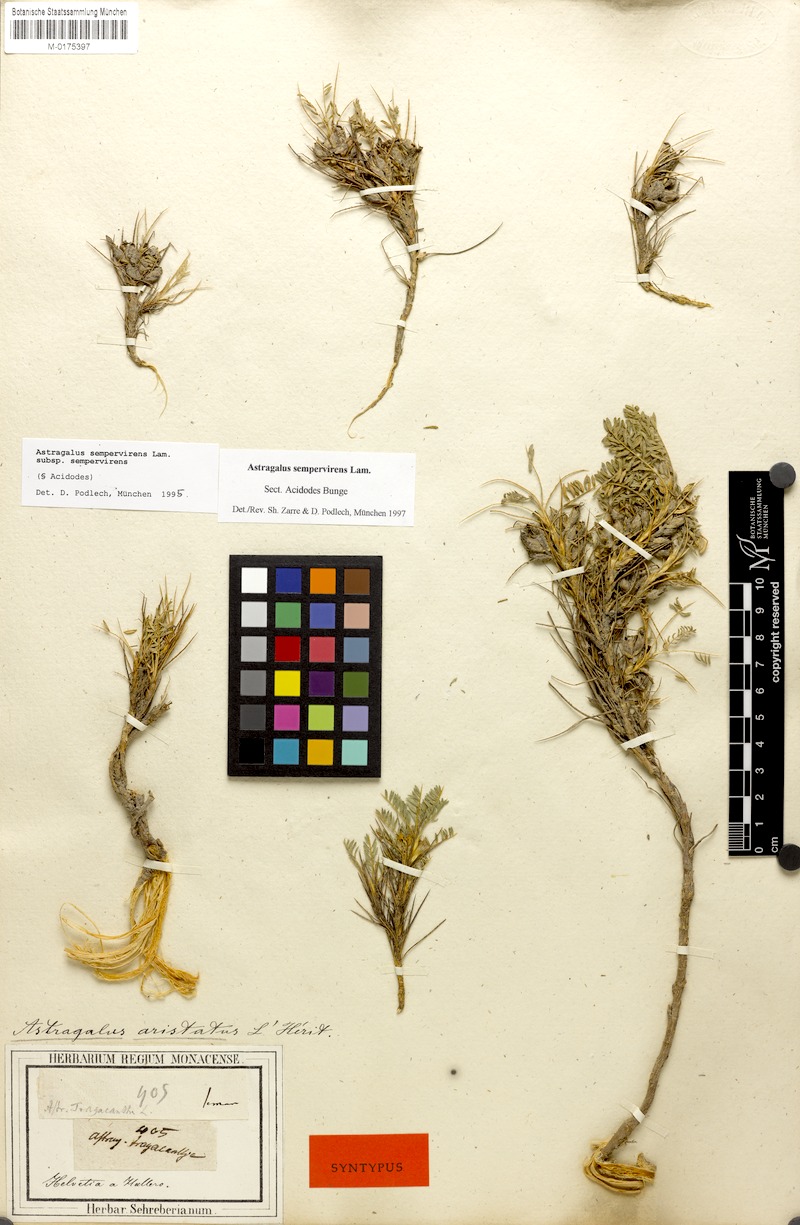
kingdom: Plantae
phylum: Tracheophyta
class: Magnoliopsida
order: Fabales
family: Fabaceae
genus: Astragalus
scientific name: Astragalus
